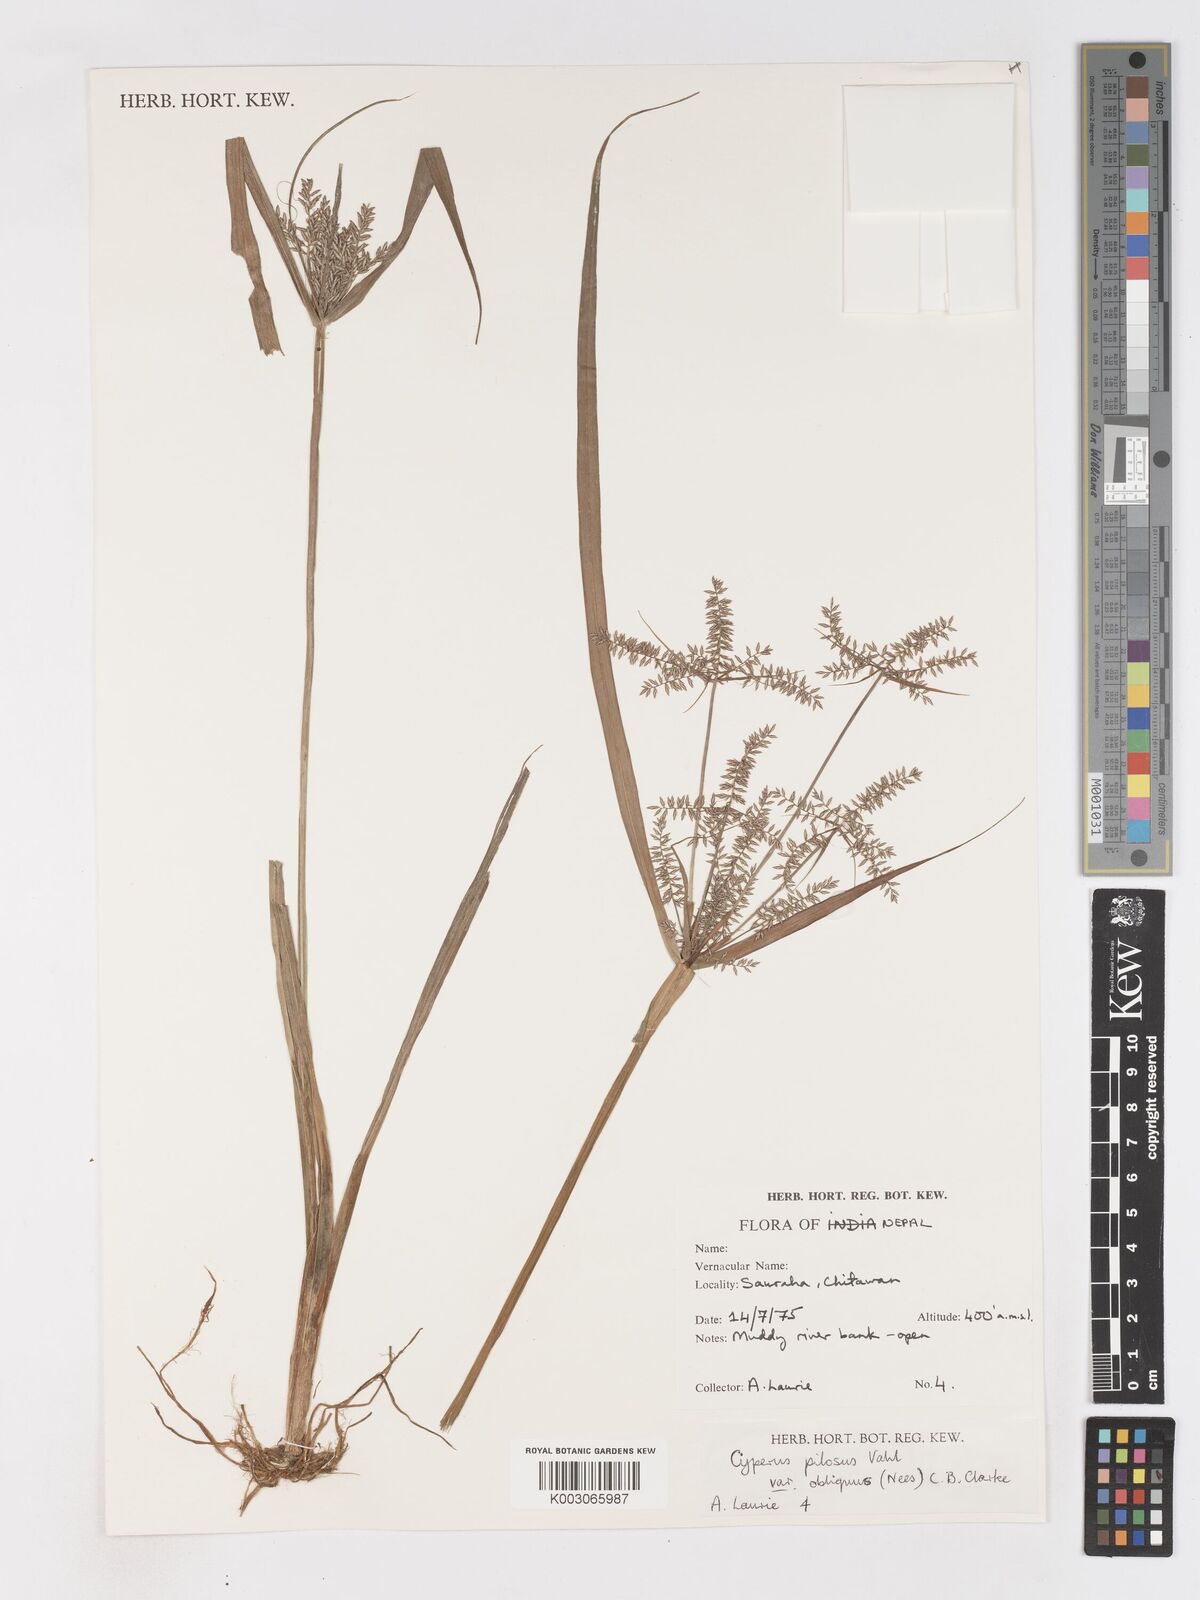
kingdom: Plantae
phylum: Tracheophyta
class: Liliopsida
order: Poales
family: Cyperaceae
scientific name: Cyperaceae
